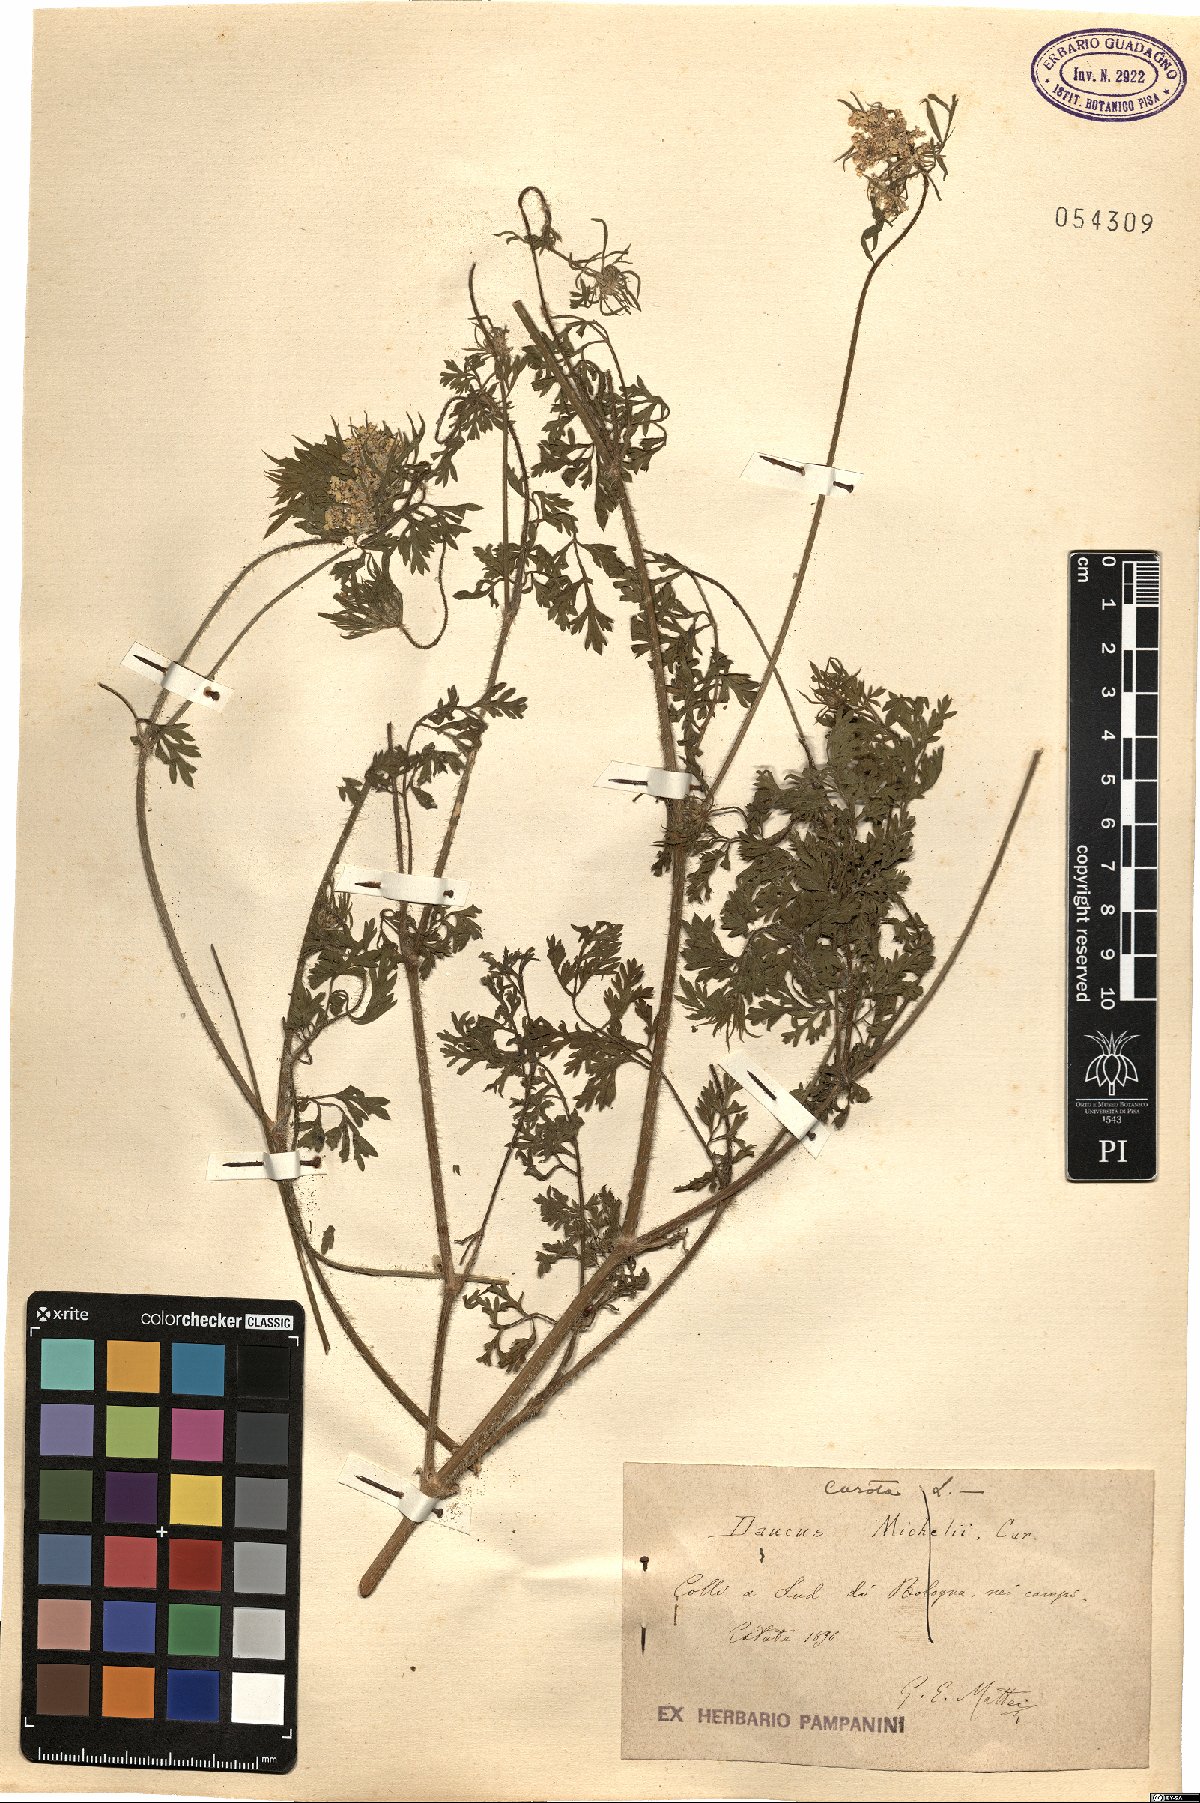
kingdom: Plantae
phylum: Tracheophyta
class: Magnoliopsida
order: Apiales
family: Apiaceae
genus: Daucus
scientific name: Daucus carota
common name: Wild carrot
